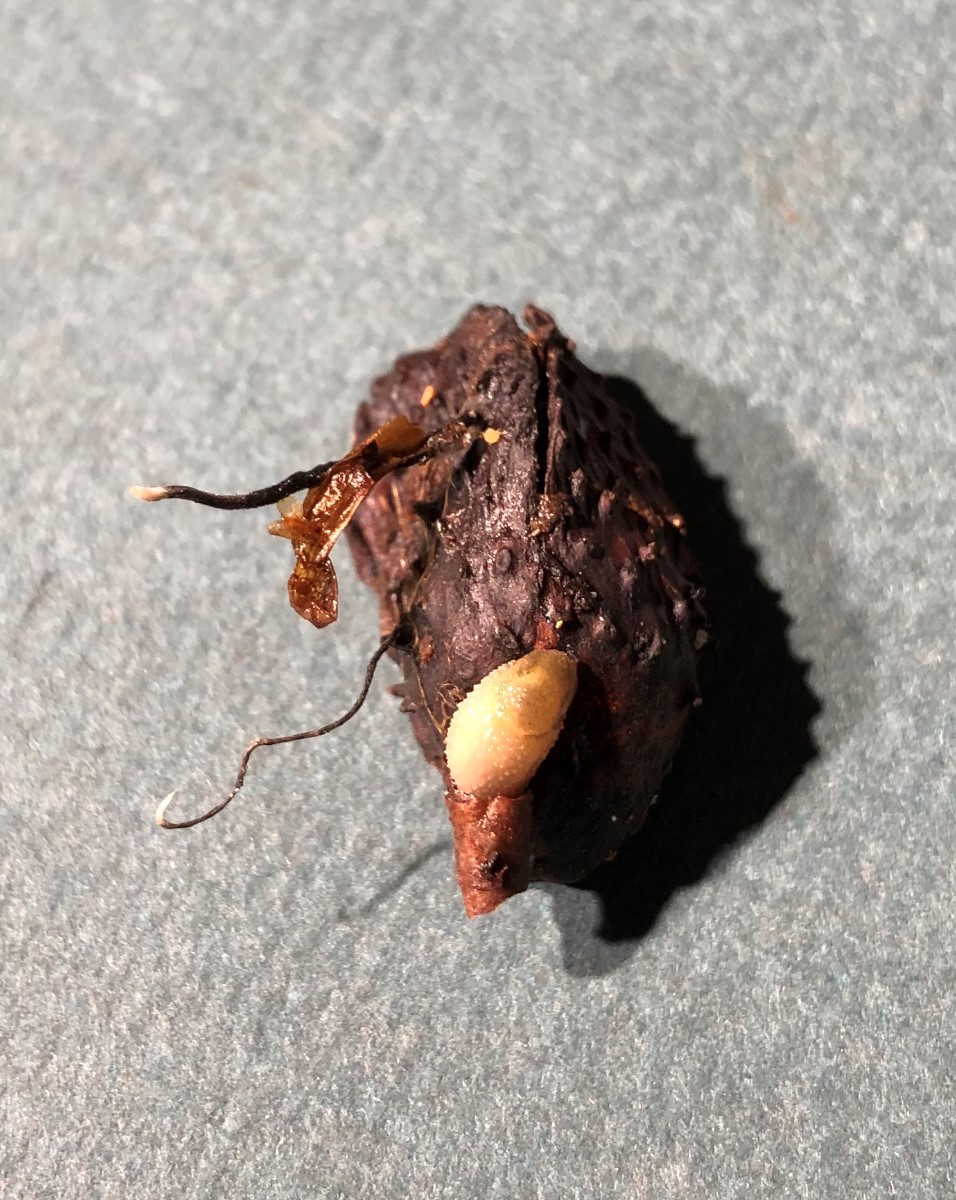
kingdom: Fungi
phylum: Ascomycota
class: Sordariomycetes
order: Xylariales
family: Xylariaceae
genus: Xylaria
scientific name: Xylaria carpophila
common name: bogskål-stødsvamp
